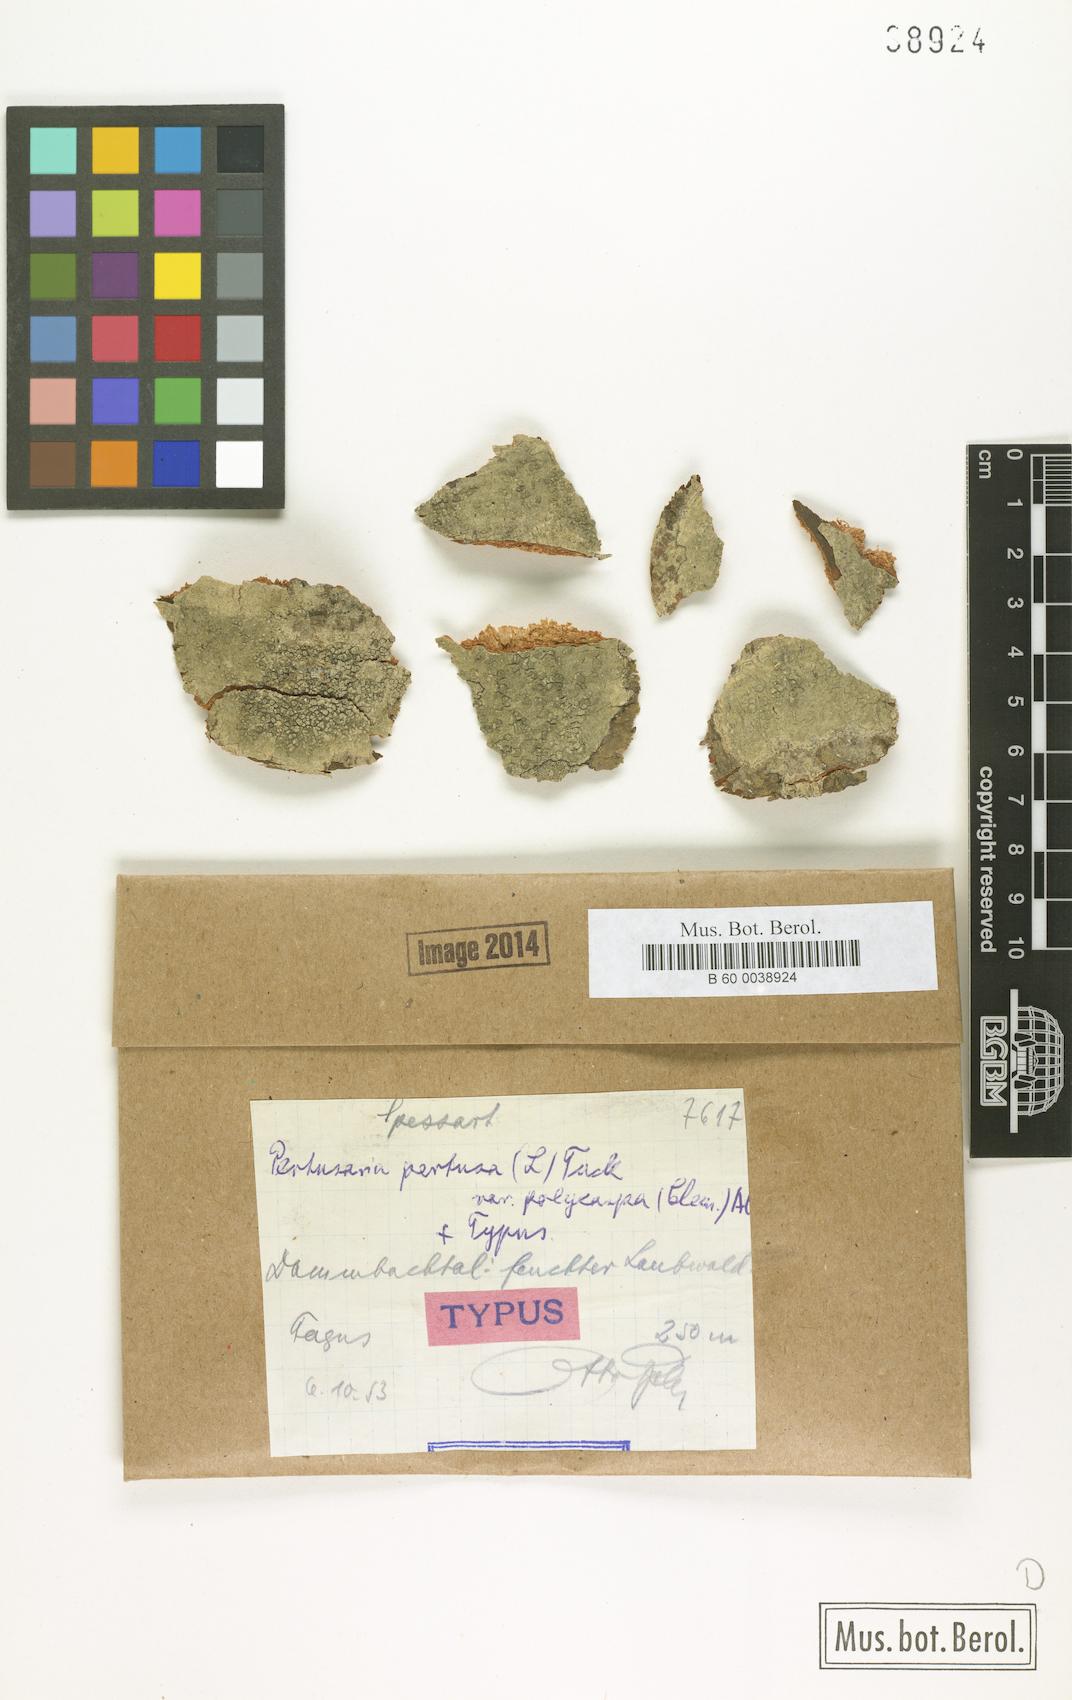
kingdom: Fungi
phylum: Ascomycota
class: Lecanoromycetes
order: Pertusariales
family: Pertusariaceae
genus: Pertusaria
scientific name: Pertusaria pertusa
